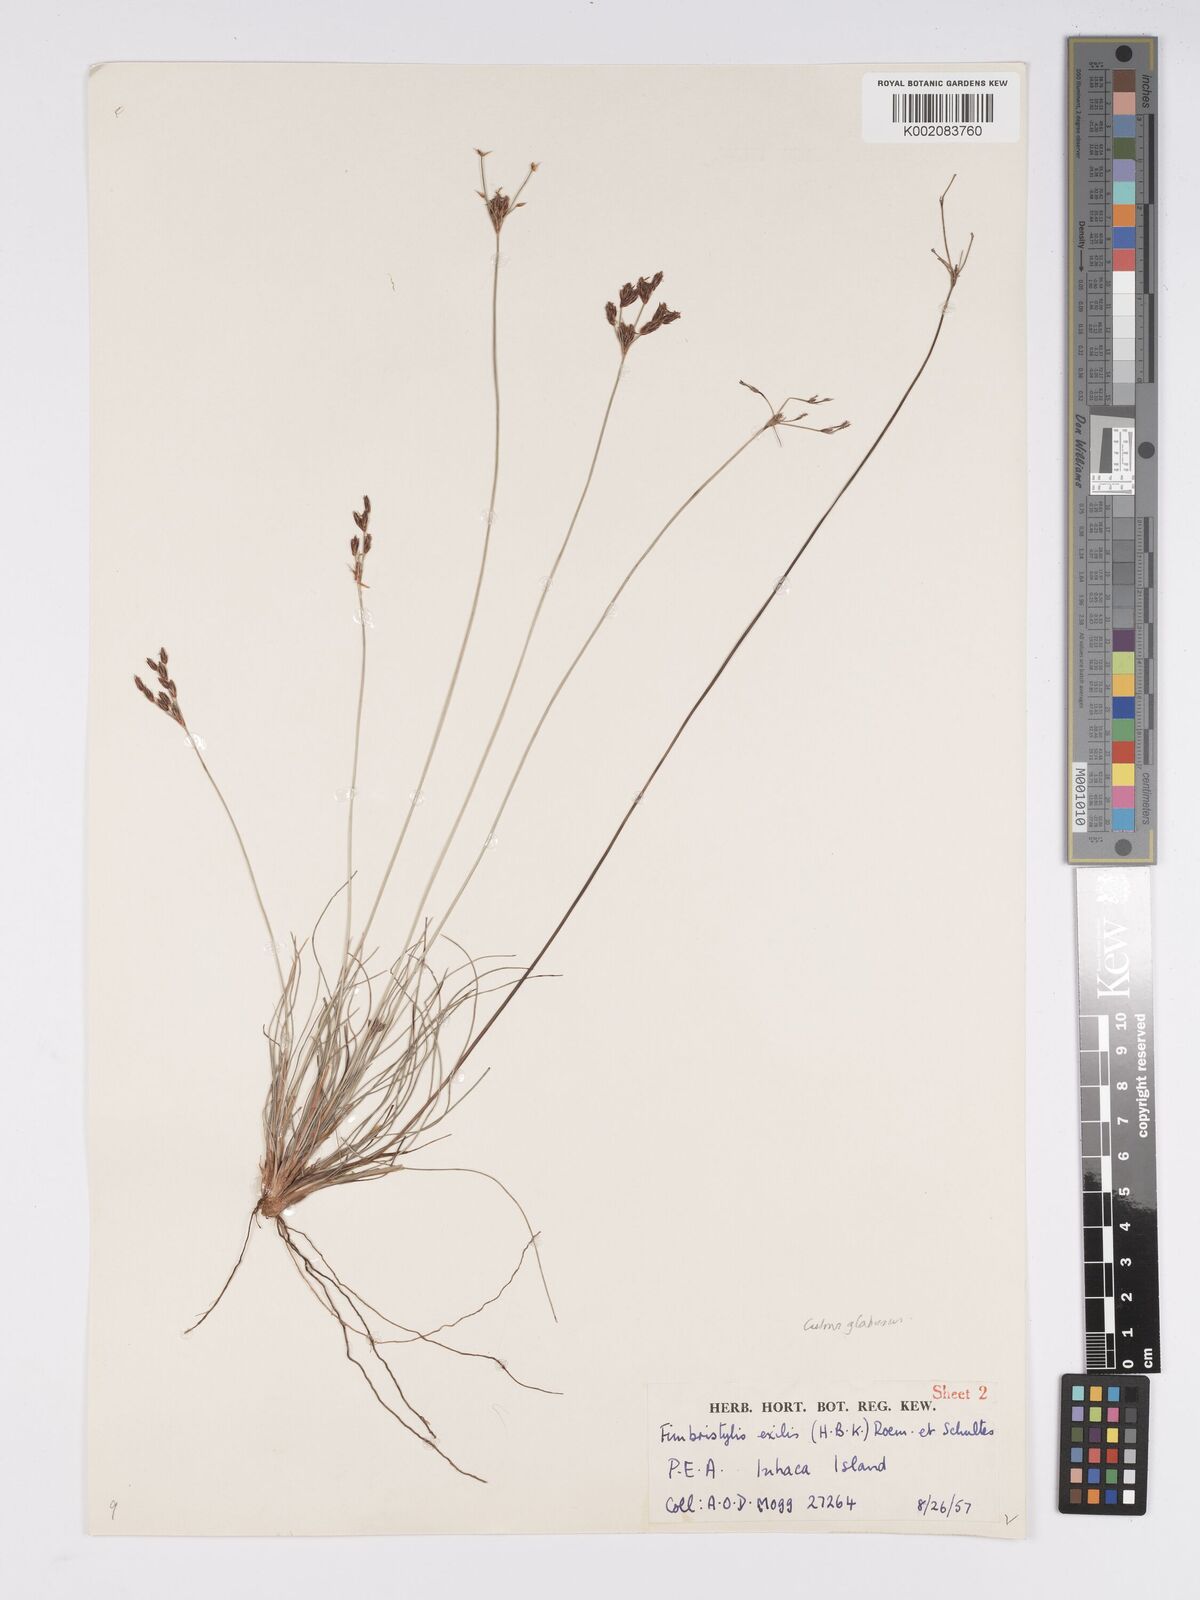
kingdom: Plantae
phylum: Tracheophyta
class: Liliopsida
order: Poales
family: Cyperaceae
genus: Bulbostylis
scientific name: Bulbostylis hispidula
